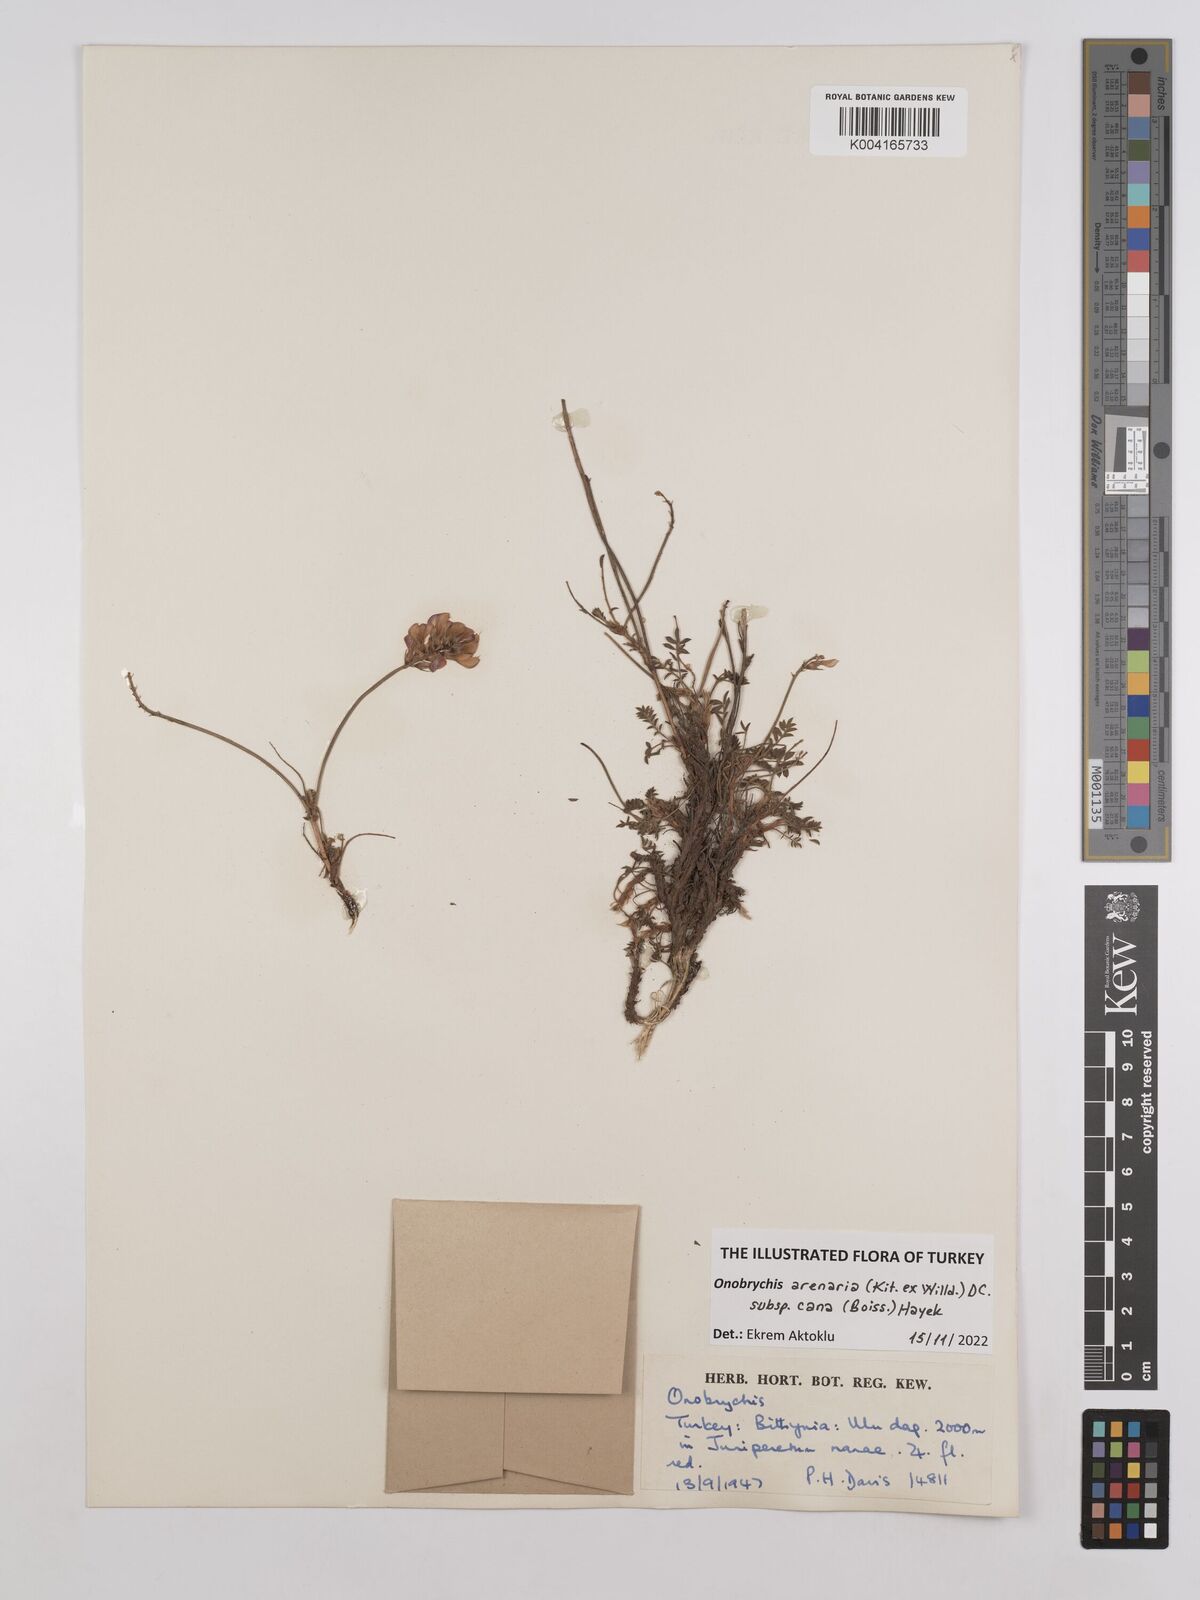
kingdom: Plantae
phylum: Tracheophyta
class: Magnoliopsida
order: Fabales
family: Fabaceae
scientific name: Fabaceae
